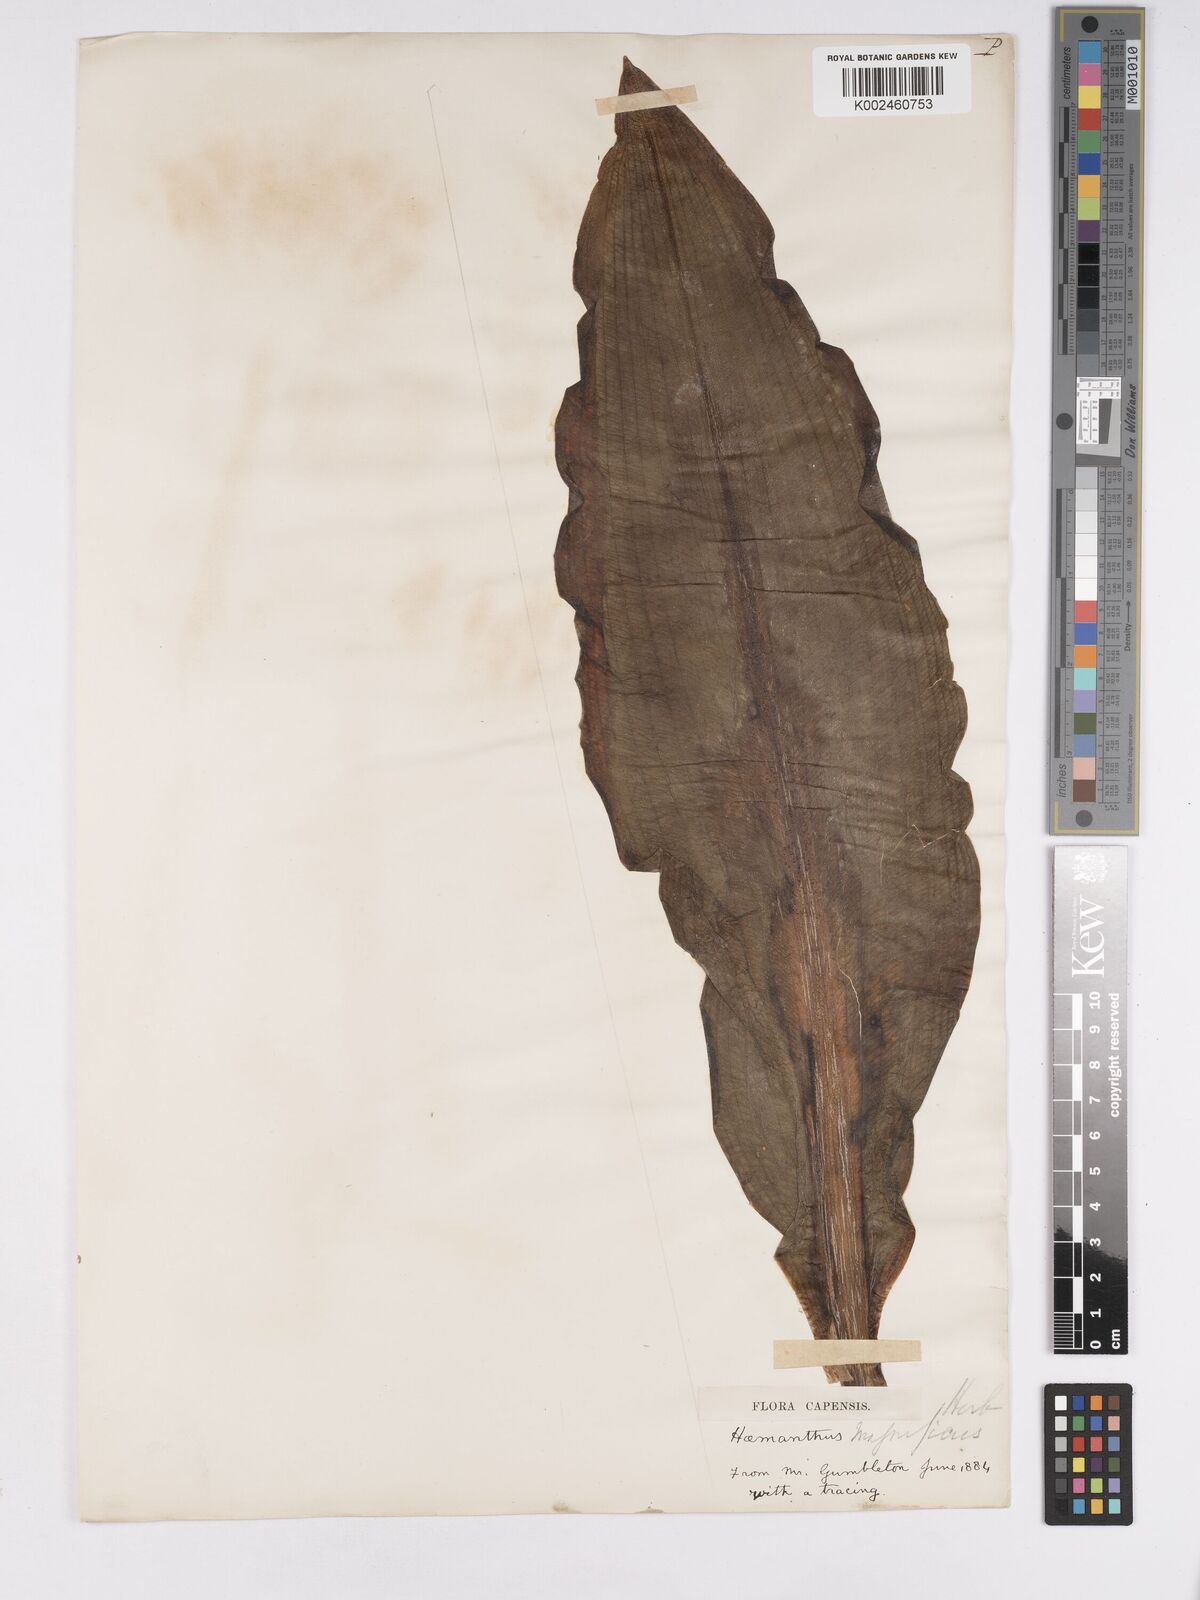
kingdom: Plantae
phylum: Tracheophyta
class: Liliopsida
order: Asparagales
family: Amaryllidaceae
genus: Scadoxus
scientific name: Scadoxus puniceus
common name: Royal-paintbrush
